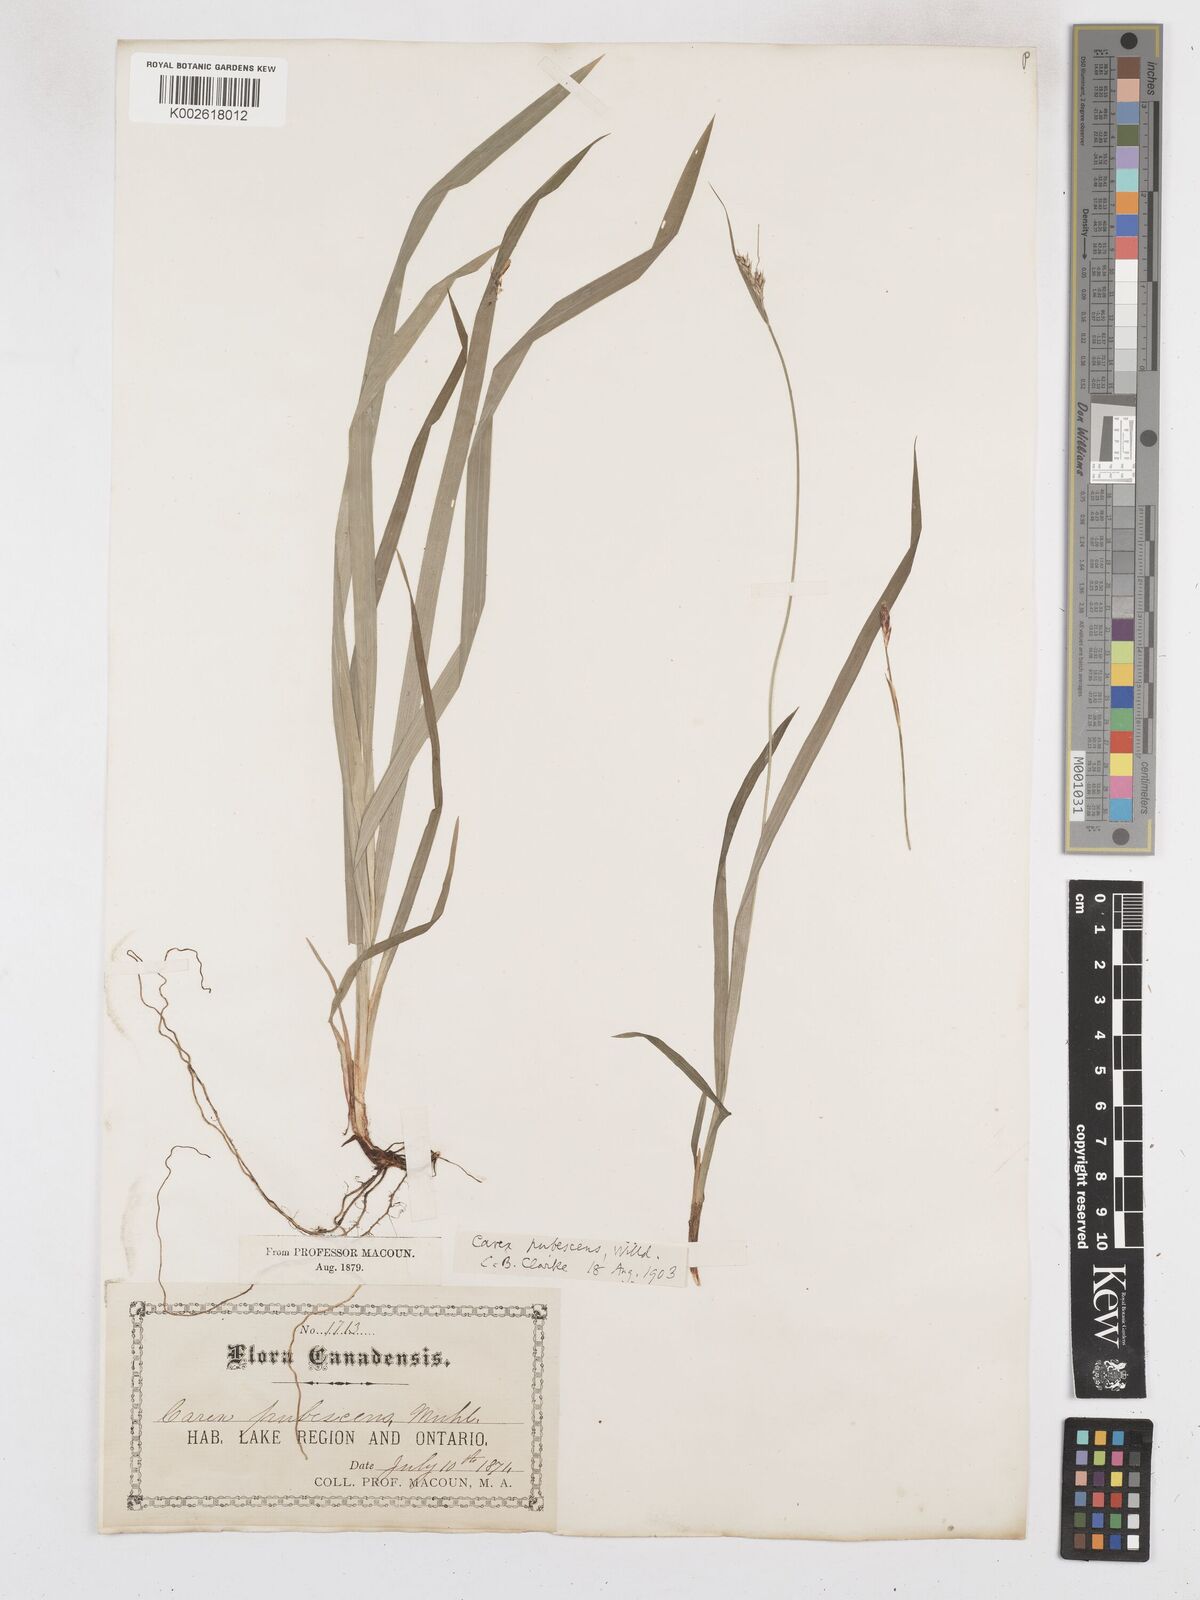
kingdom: Plantae
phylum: Tracheophyta
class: Liliopsida
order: Poales
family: Cyperaceae
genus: Carex
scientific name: Carex hirtifolia
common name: Hairy sedge
